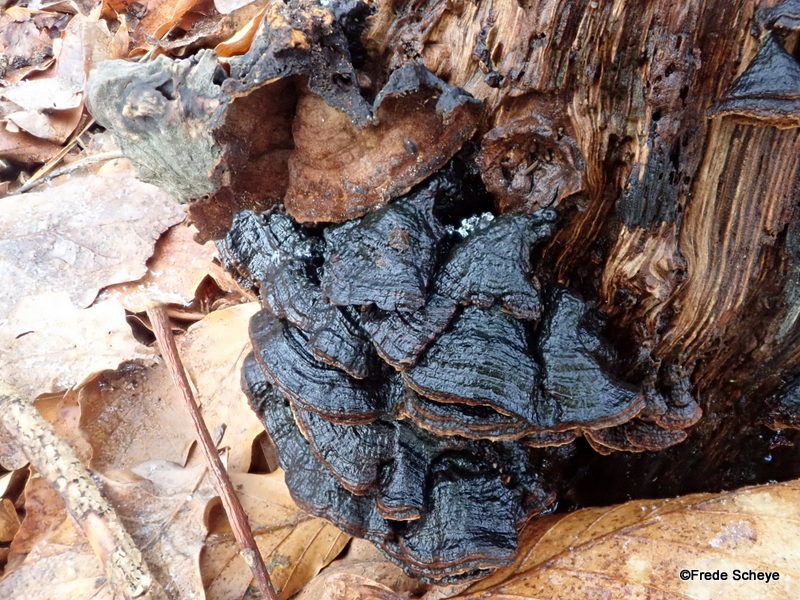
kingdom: Fungi
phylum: Basidiomycota
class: Agaricomycetes
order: Hymenochaetales
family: Hymenochaetaceae
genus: Hymenochaete
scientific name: Hymenochaete rubiginosa
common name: stiv ruslædersvamp
